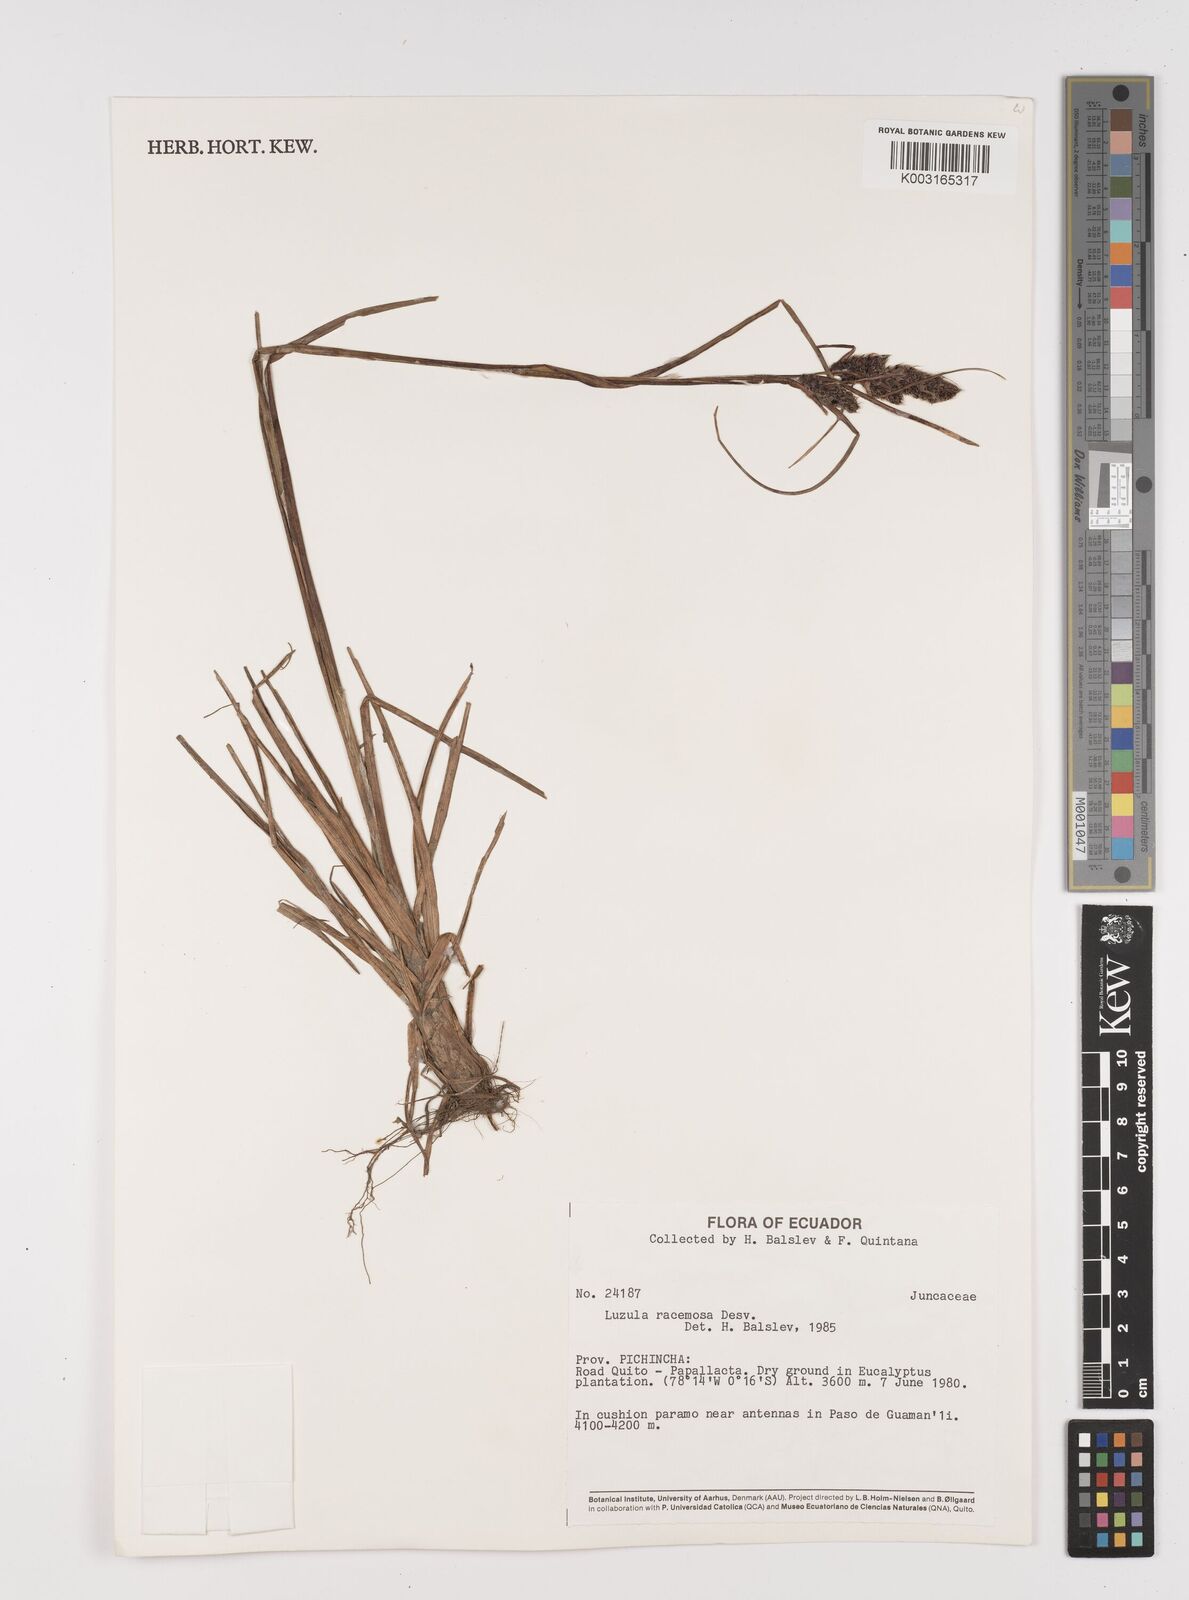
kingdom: Plantae
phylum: Tracheophyta
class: Liliopsida
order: Poales
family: Juncaceae
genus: Luzula
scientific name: Luzula racemosa
